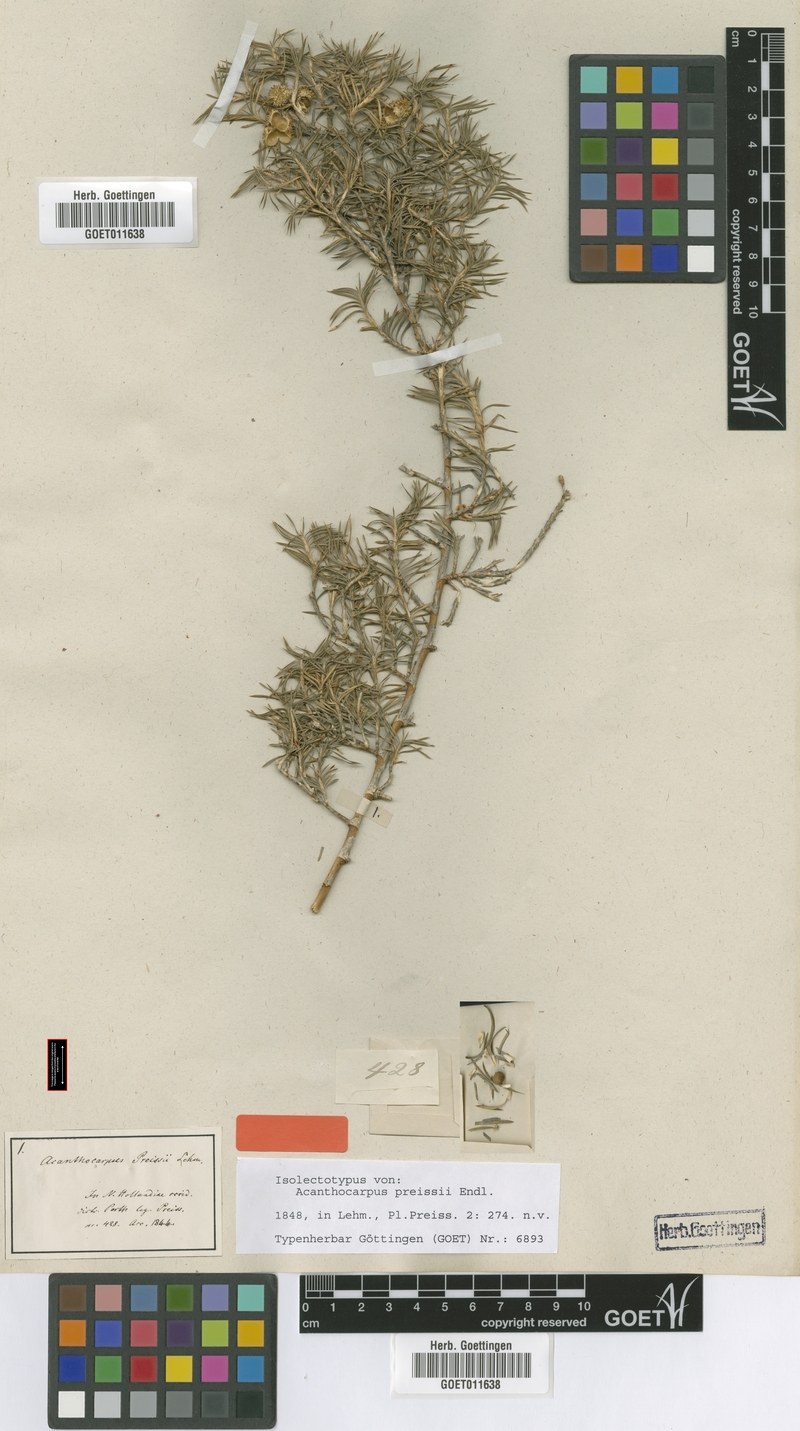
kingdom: Plantae
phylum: Tracheophyta
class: Liliopsida
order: Asparagales
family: Asparagaceae
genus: Acanthocarpus
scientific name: Acanthocarpus preissii
